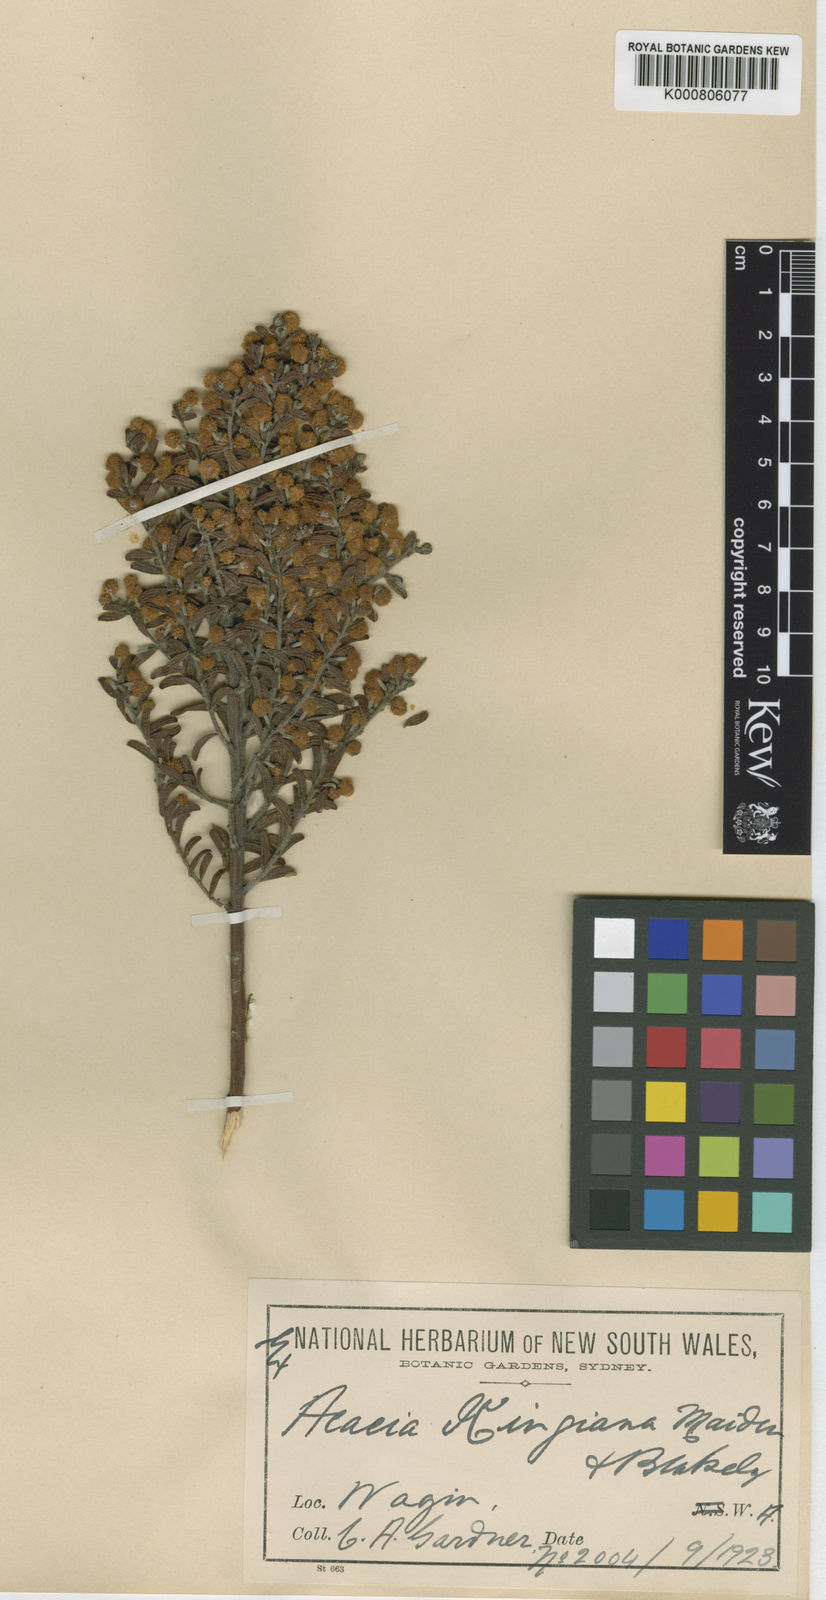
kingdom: Plantae
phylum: Tracheophyta
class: Magnoliopsida
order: Fabales
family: Fabaceae
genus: Acacia
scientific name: Acacia kingiana
